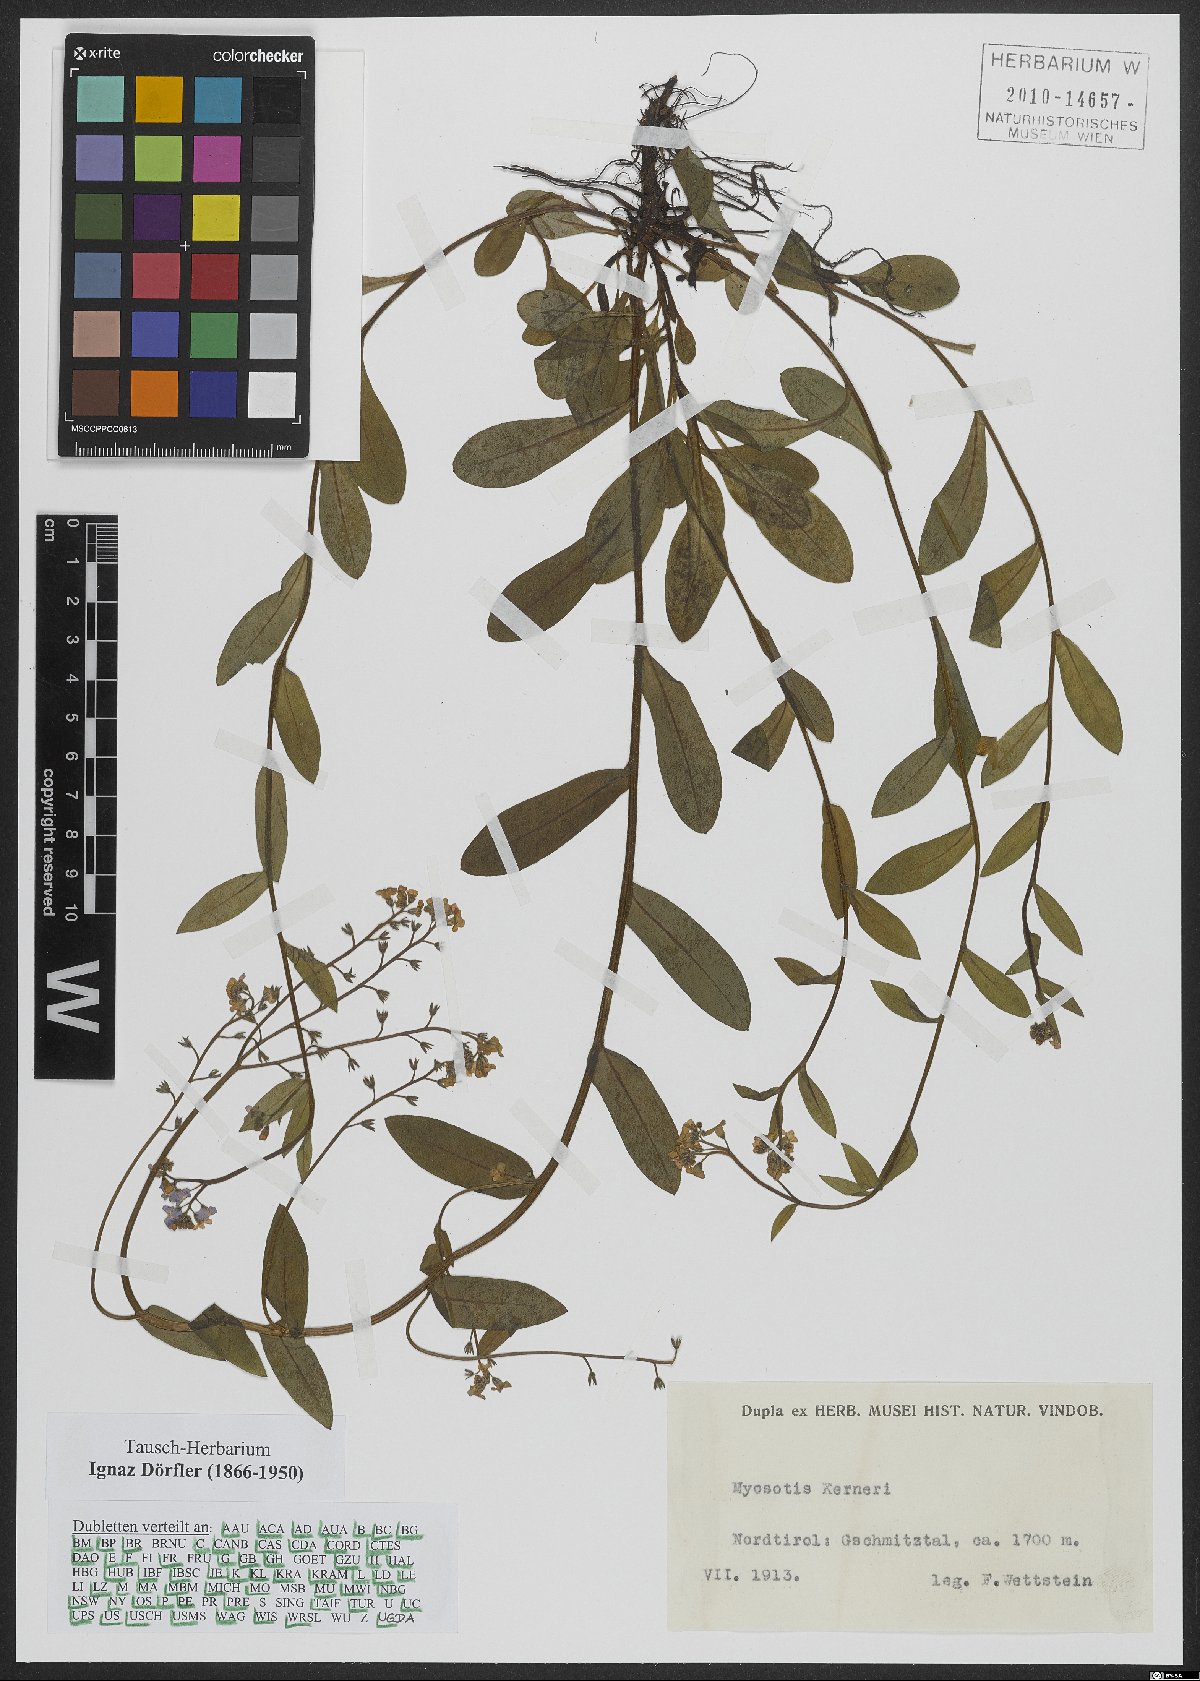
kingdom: Plantae
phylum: Tracheophyta
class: Magnoliopsida
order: Boraginales
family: Boraginaceae
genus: Myosotis
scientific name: Myosotis decumbens
